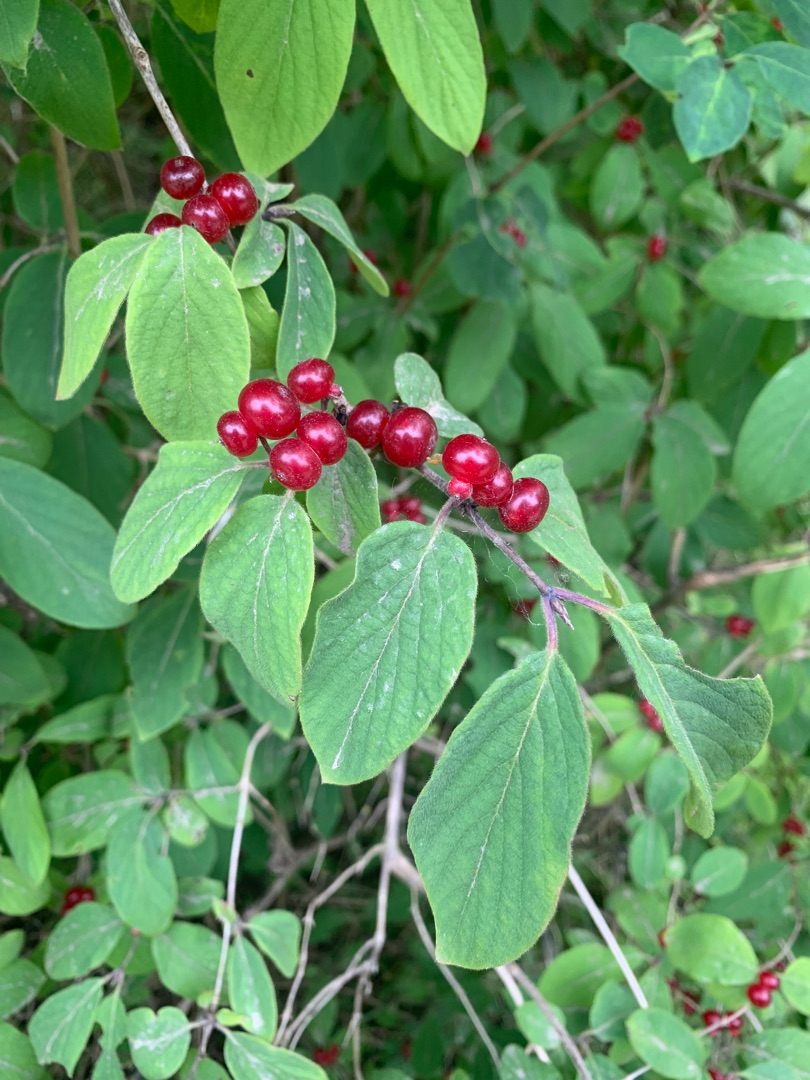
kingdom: Plantae
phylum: Tracheophyta
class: Magnoliopsida
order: Dipsacales
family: Caprifoliaceae
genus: Lonicera
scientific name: Lonicera xylosteum
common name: Dunet gedeblad
